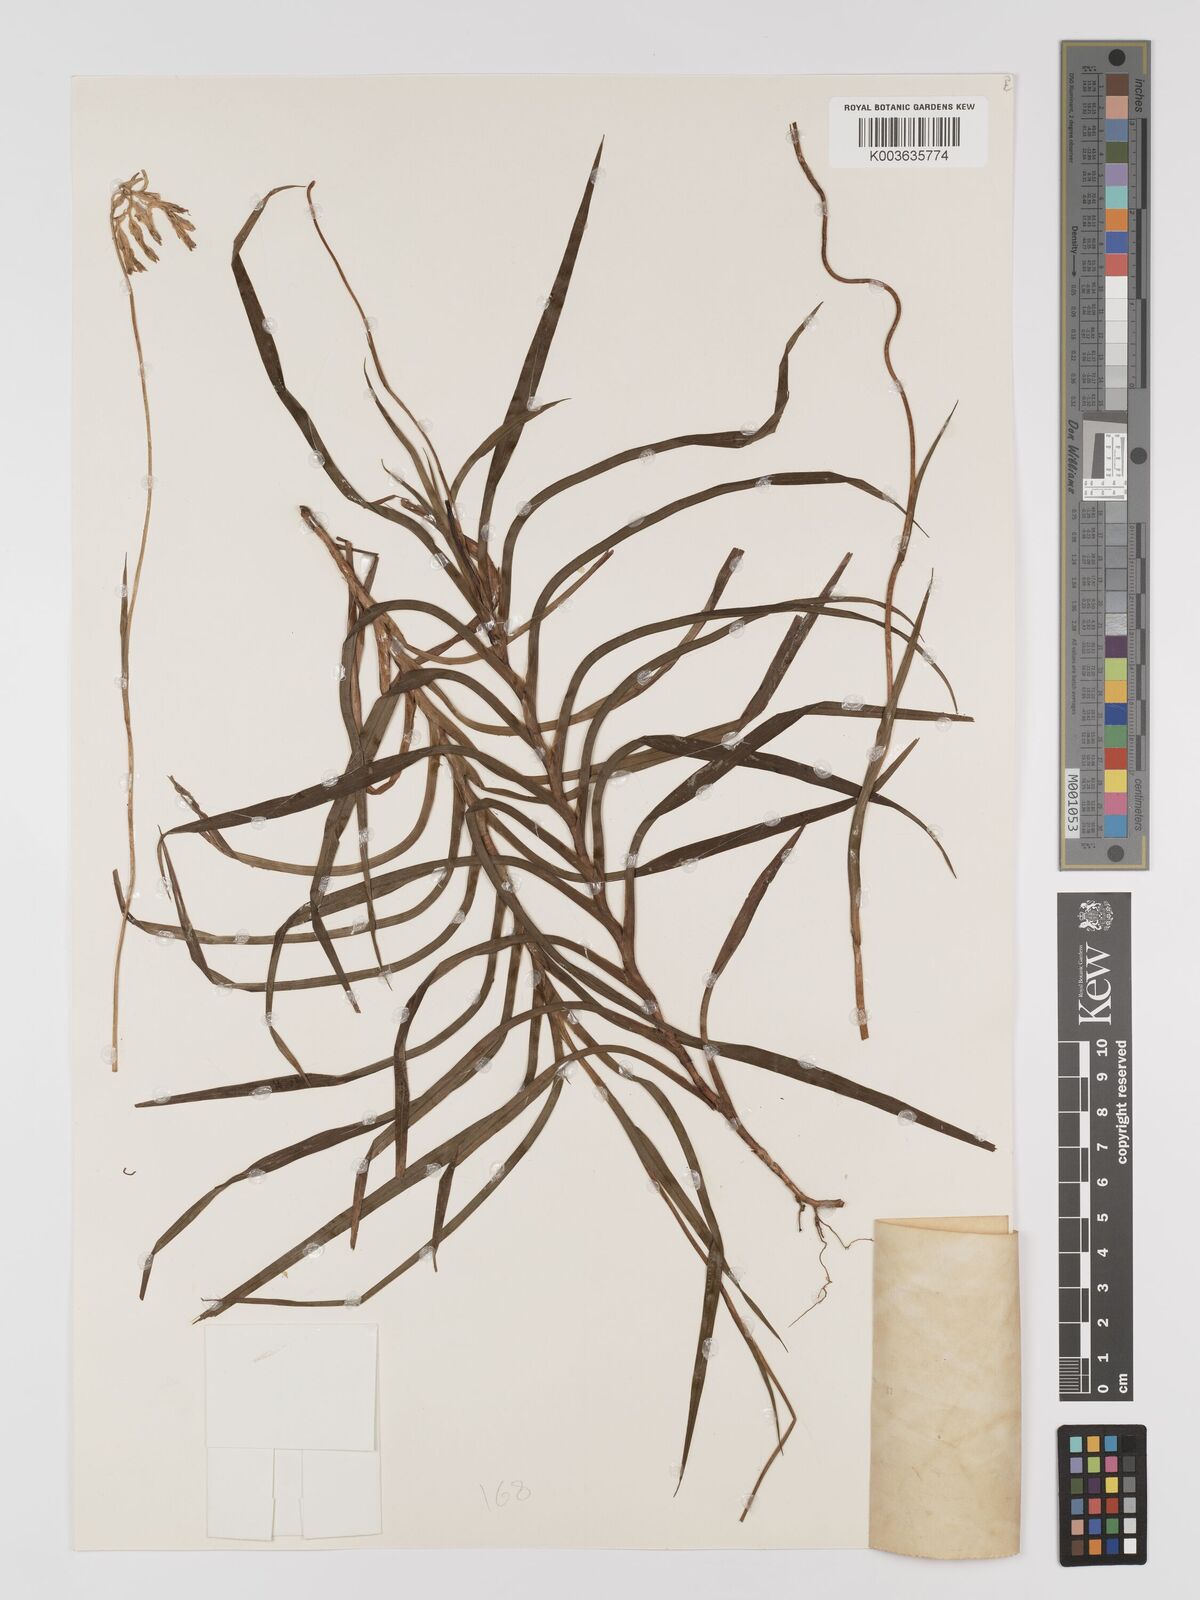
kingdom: Plantae
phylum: Tracheophyta
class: Liliopsida
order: Dioscoreales
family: Burmanniaceae
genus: Burmannia
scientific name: Burmannia longifolia
